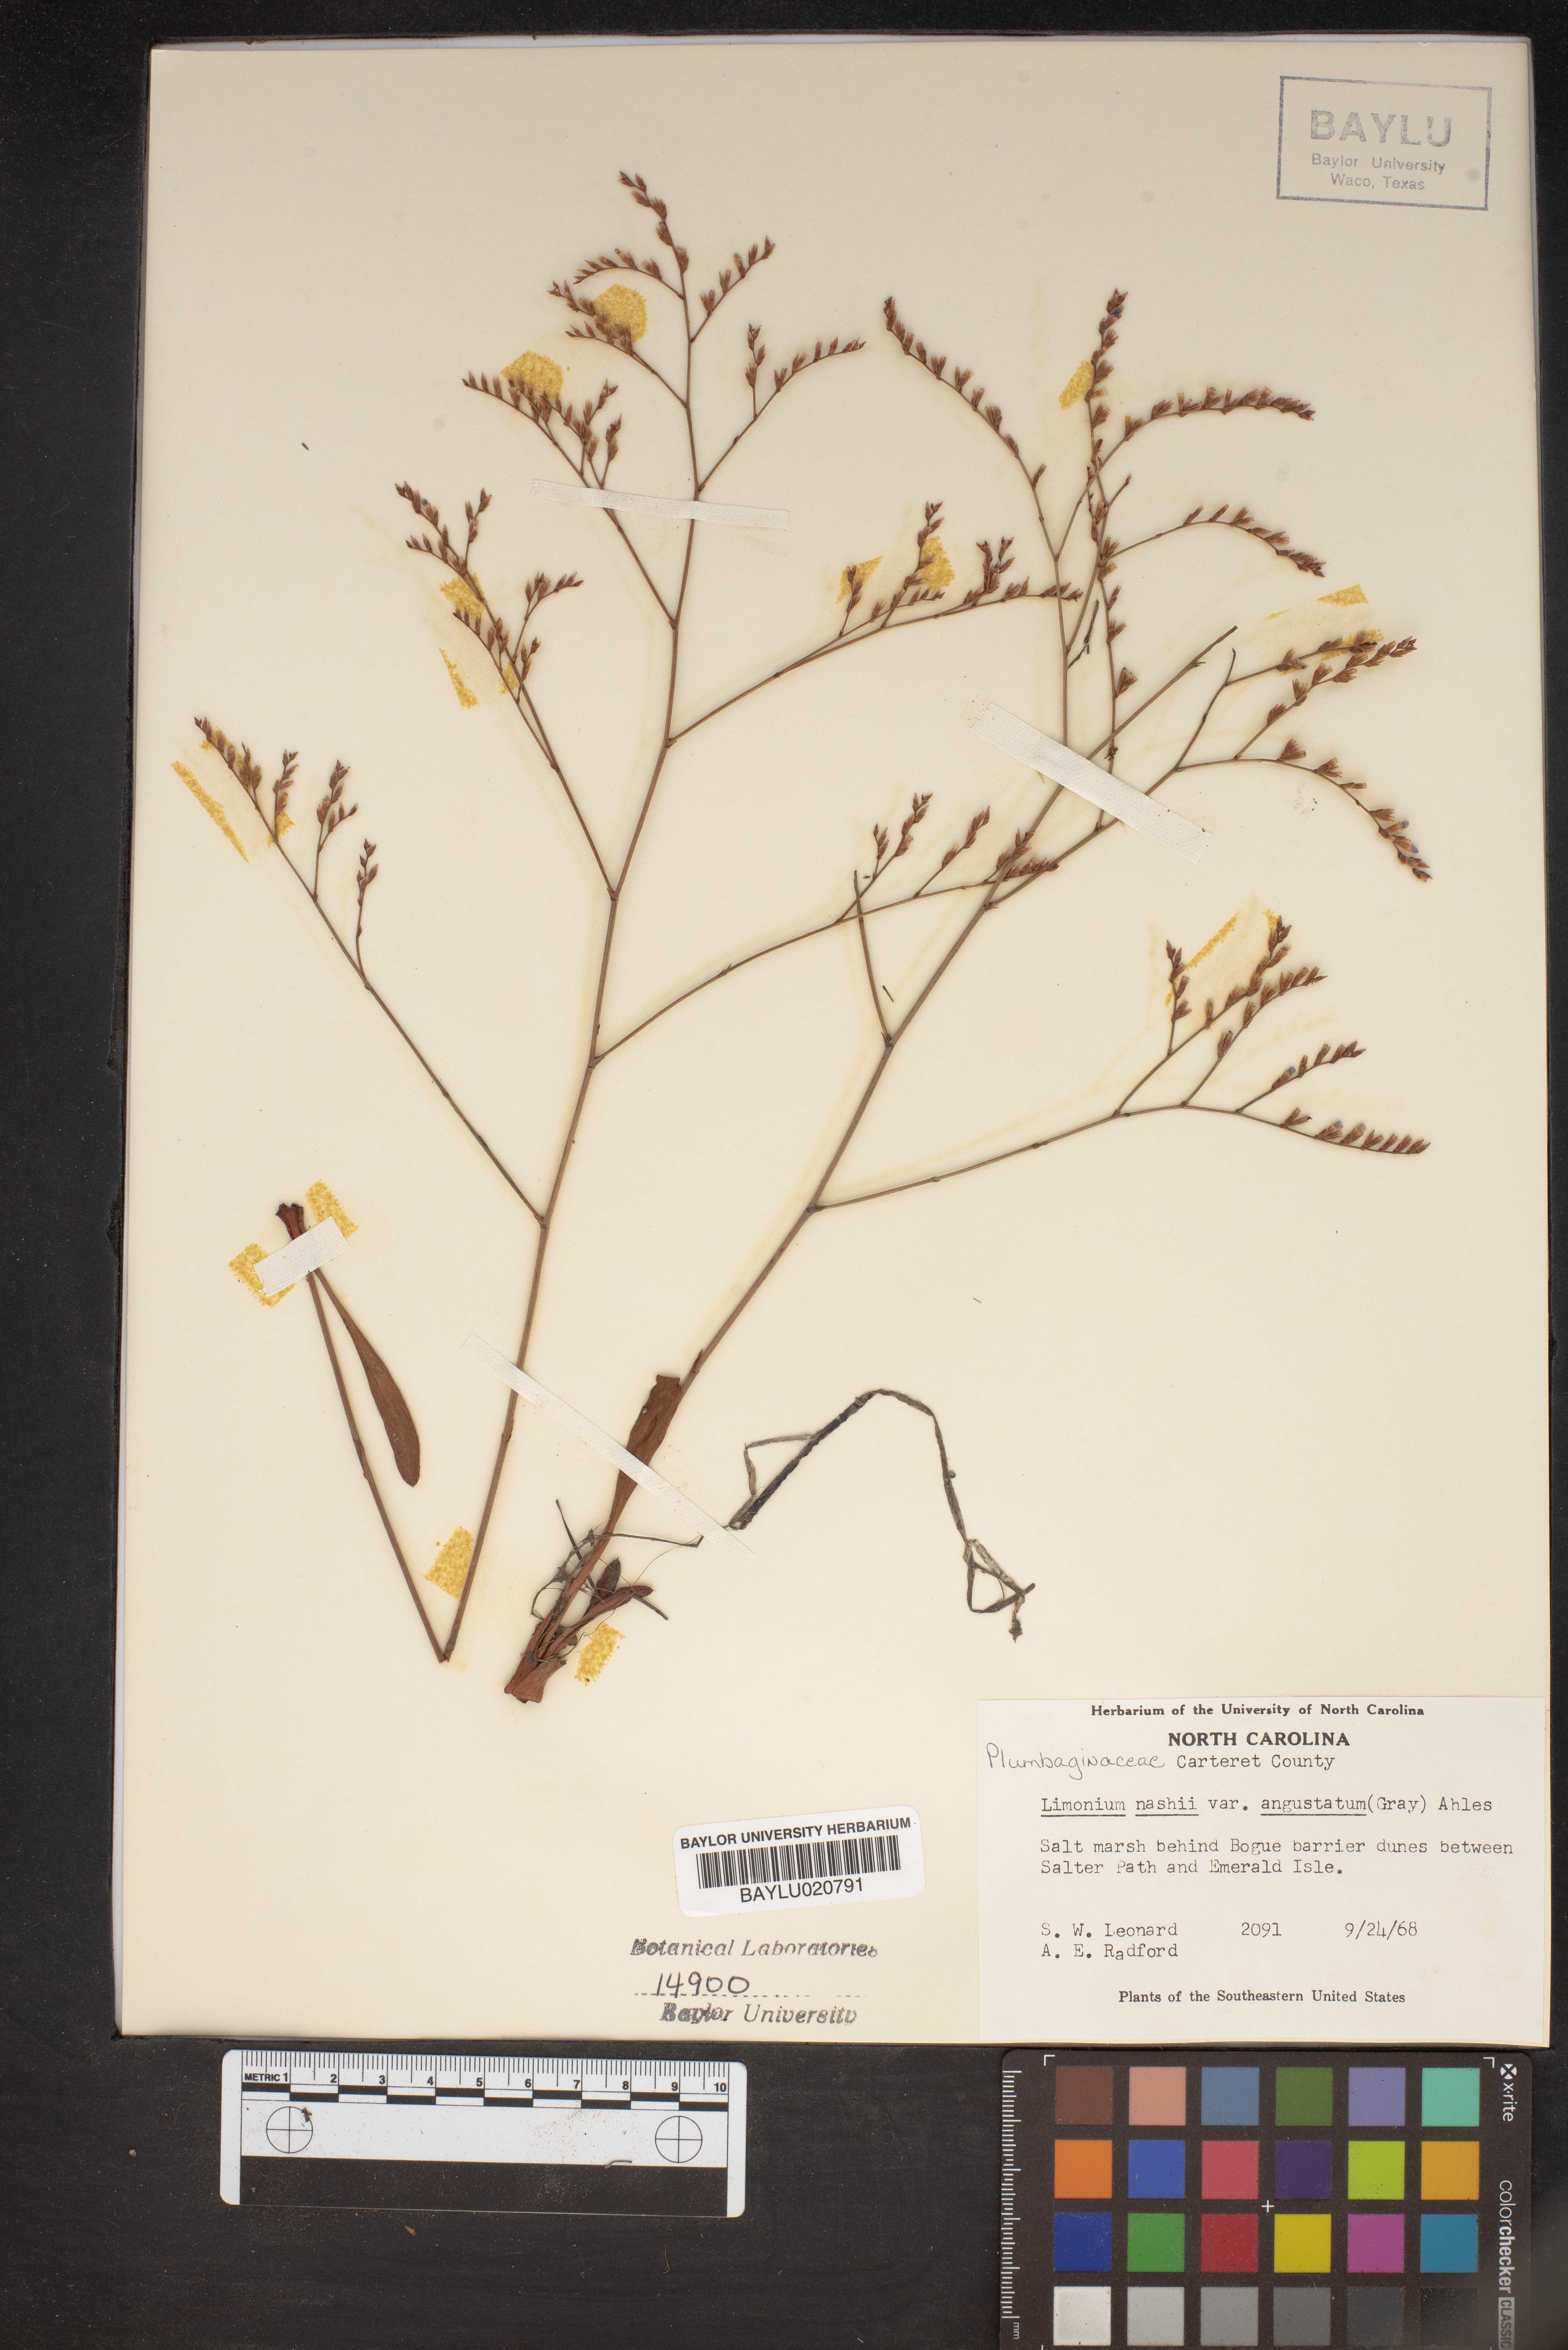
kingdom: Plantae
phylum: Tracheophyta
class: Magnoliopsida
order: Caryophyllales
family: Plumbaginaceae
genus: Limonium
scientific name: Limonium carolinianum
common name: Carolina sea lavender
